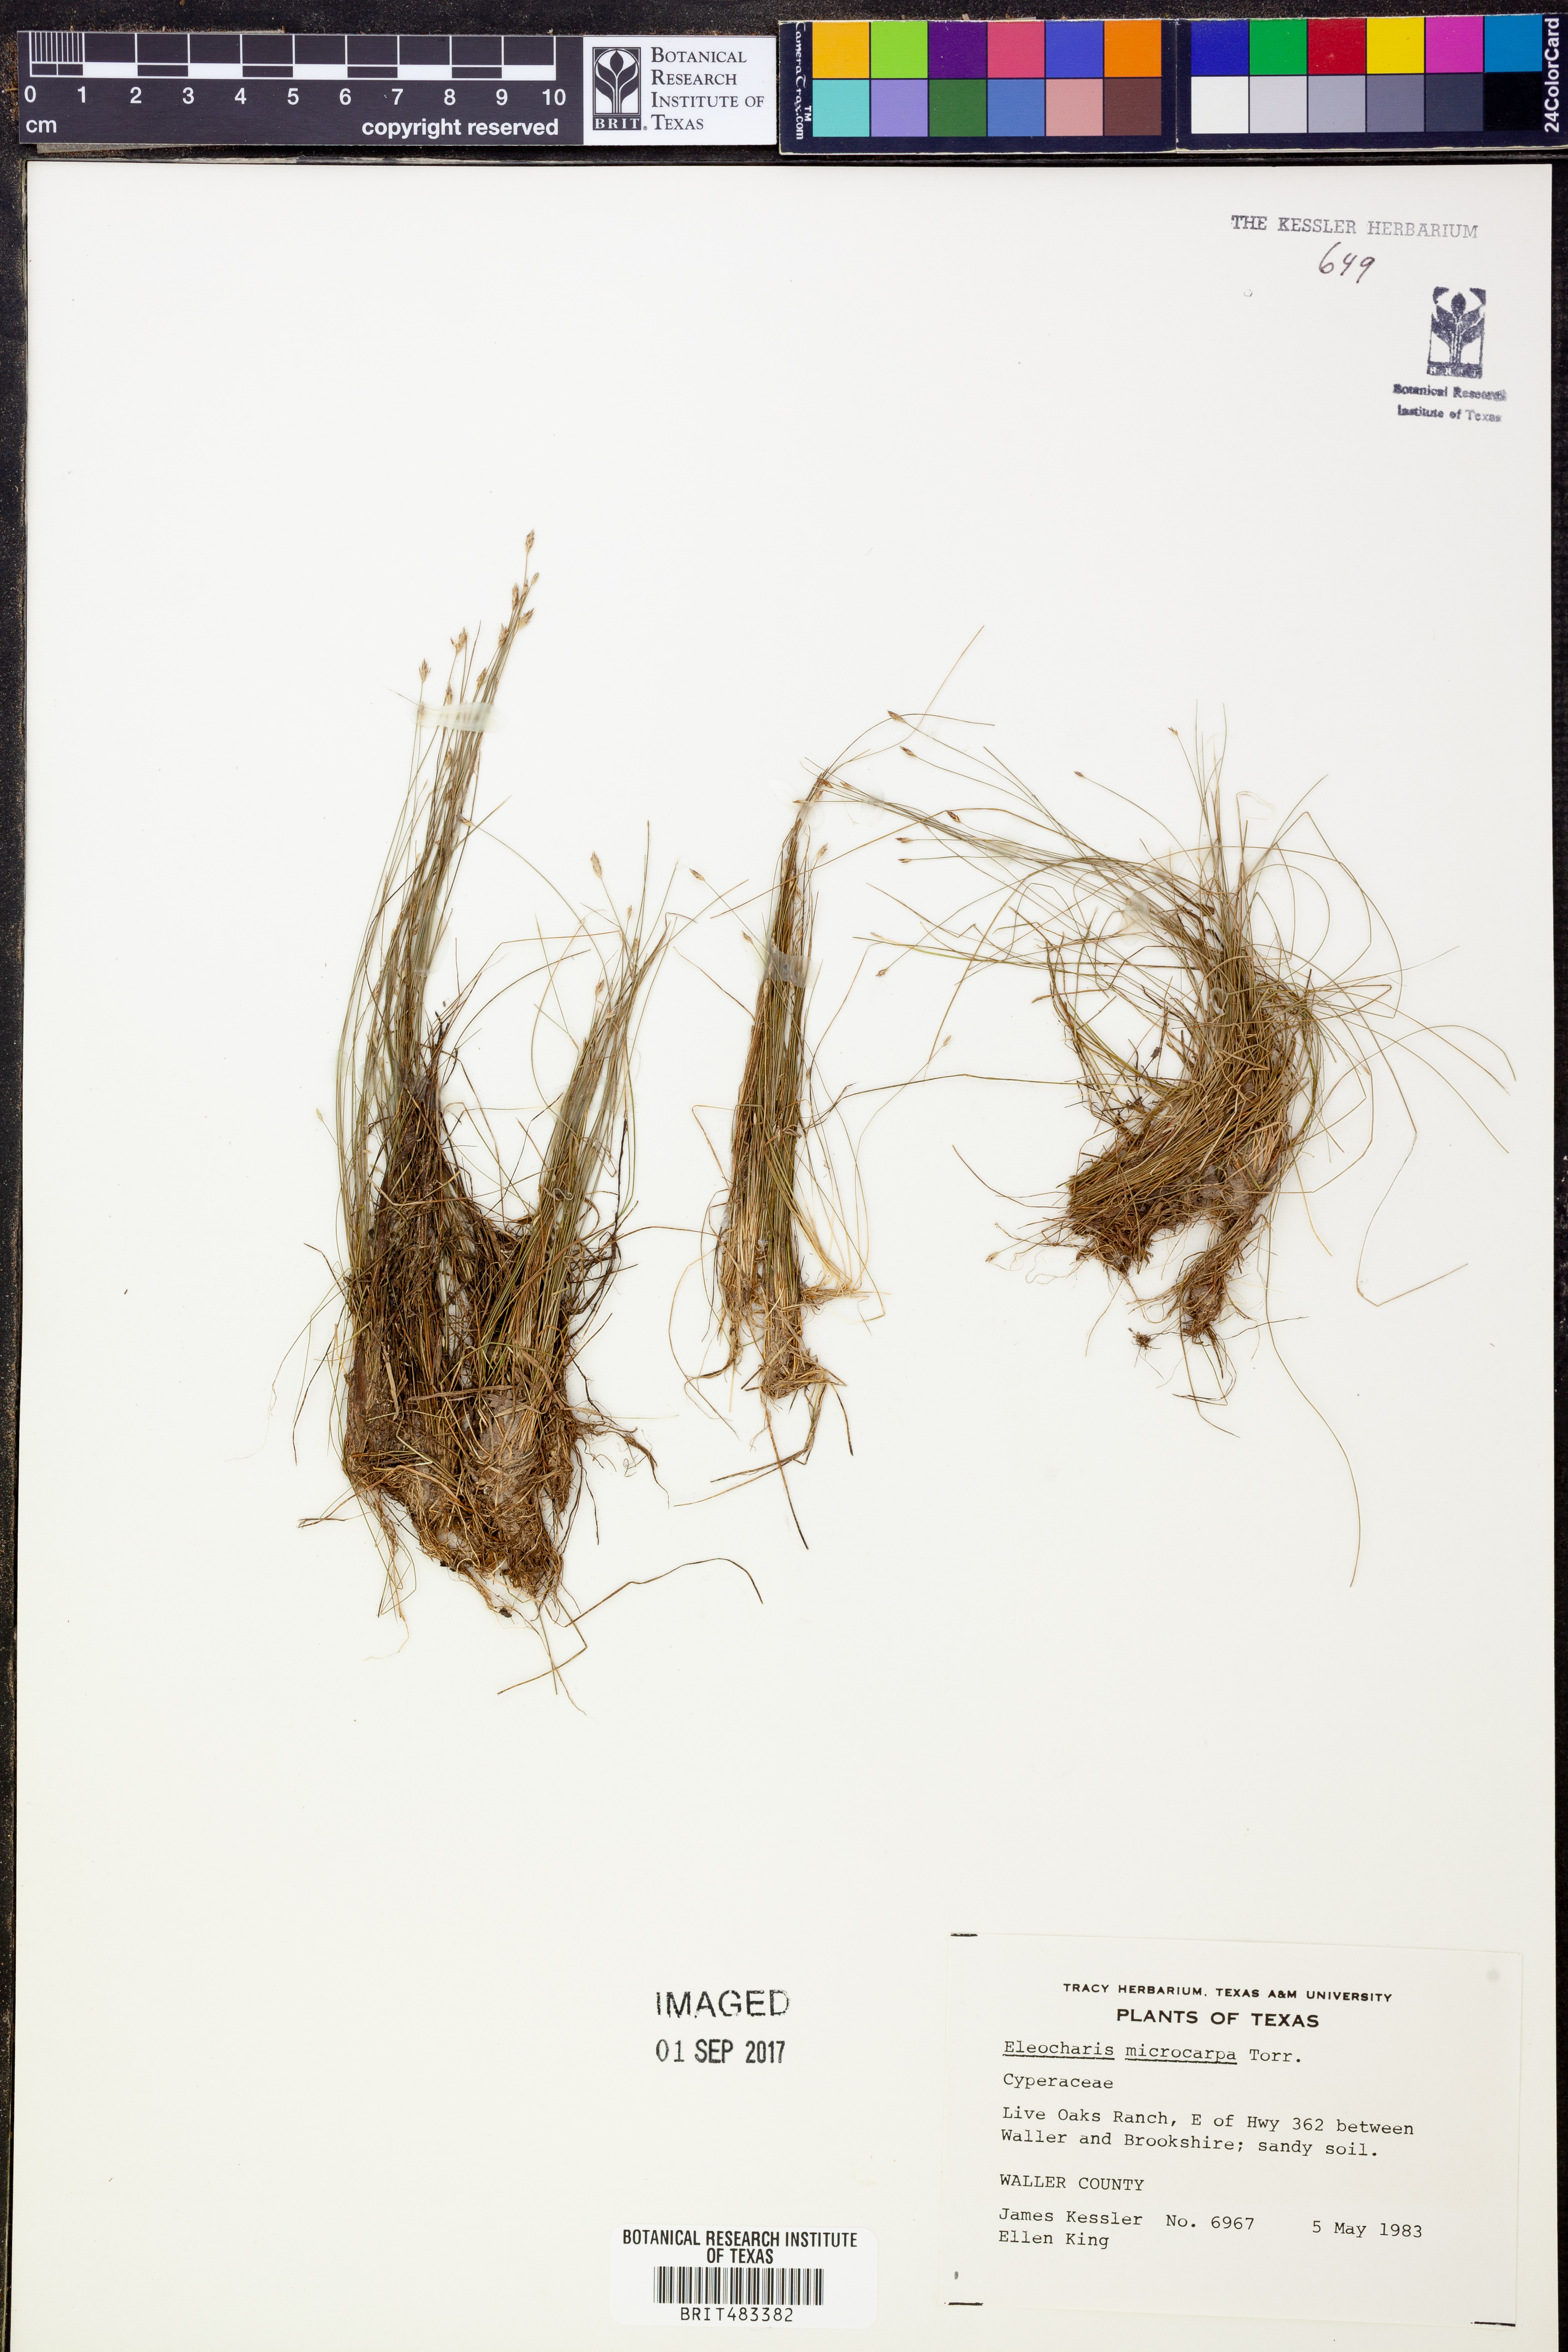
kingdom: Plantae
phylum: Tracheophyta
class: Liliopsida
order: Poales
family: Cyperaceae
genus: Eleocharis
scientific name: Eleocharis microcarpa
